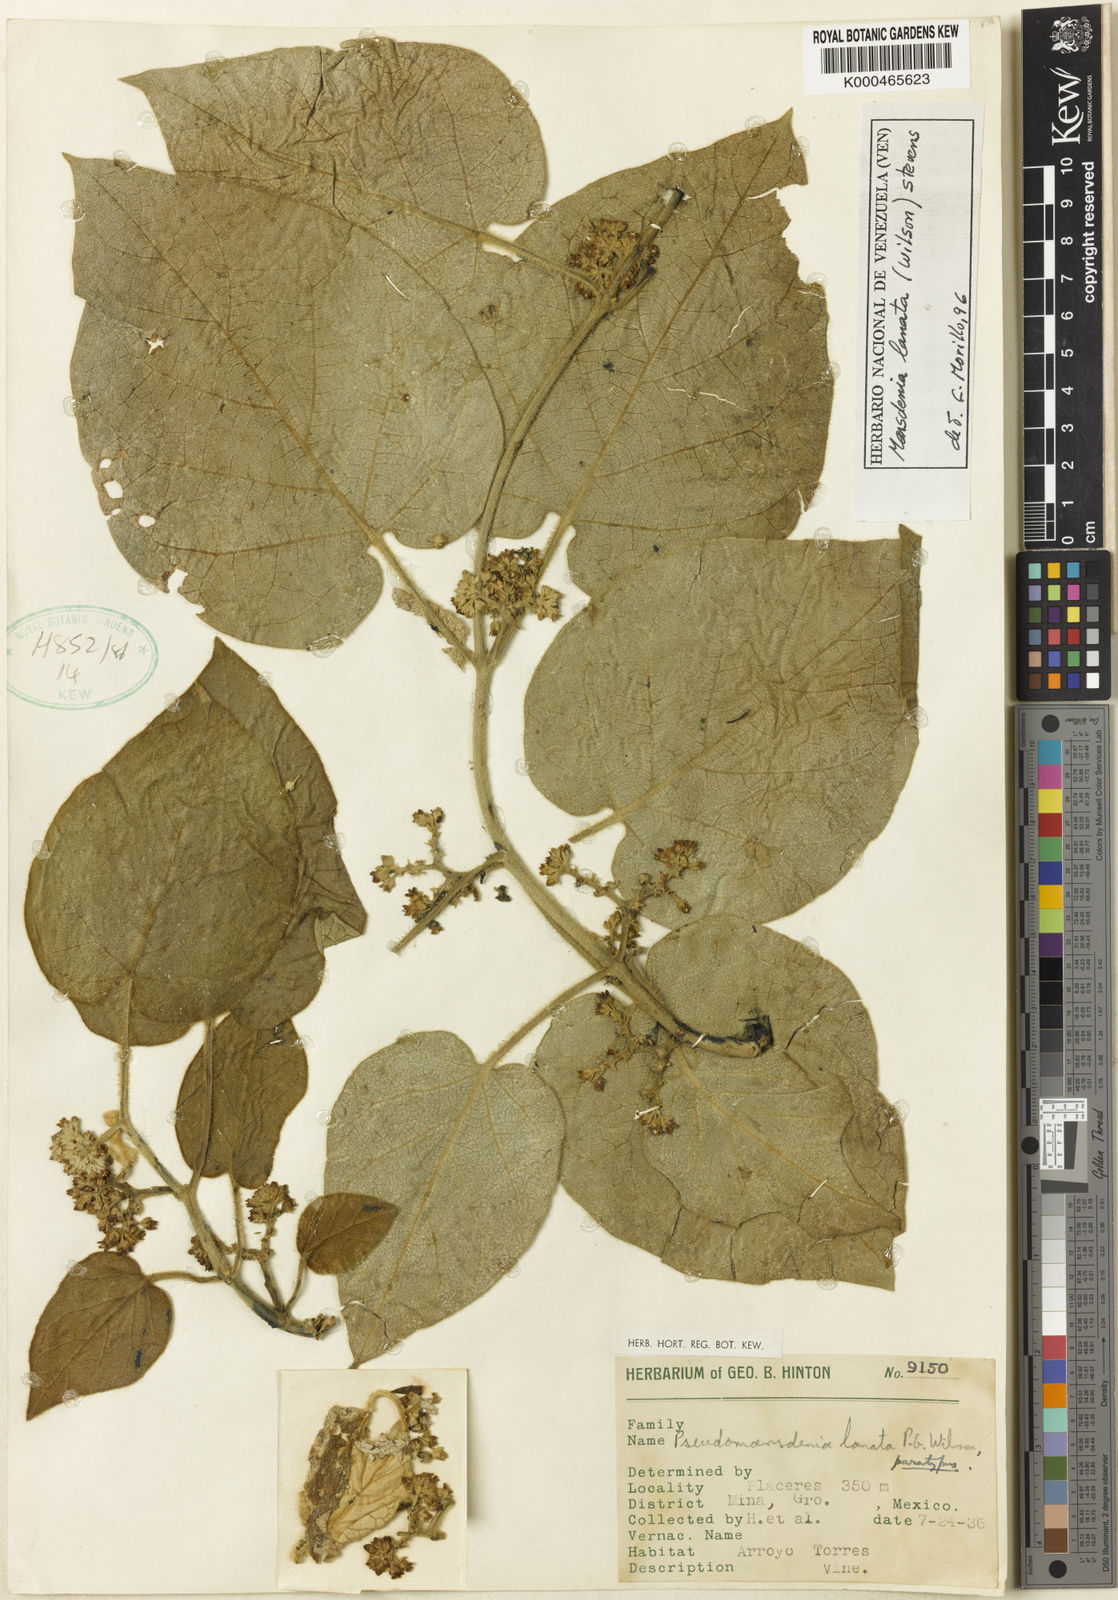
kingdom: Plantae
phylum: Tracheophyta
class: Magnoliopsida
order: Gentianales
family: Apocynaceae
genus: Ruehssia
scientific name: Ruehssia lanata
